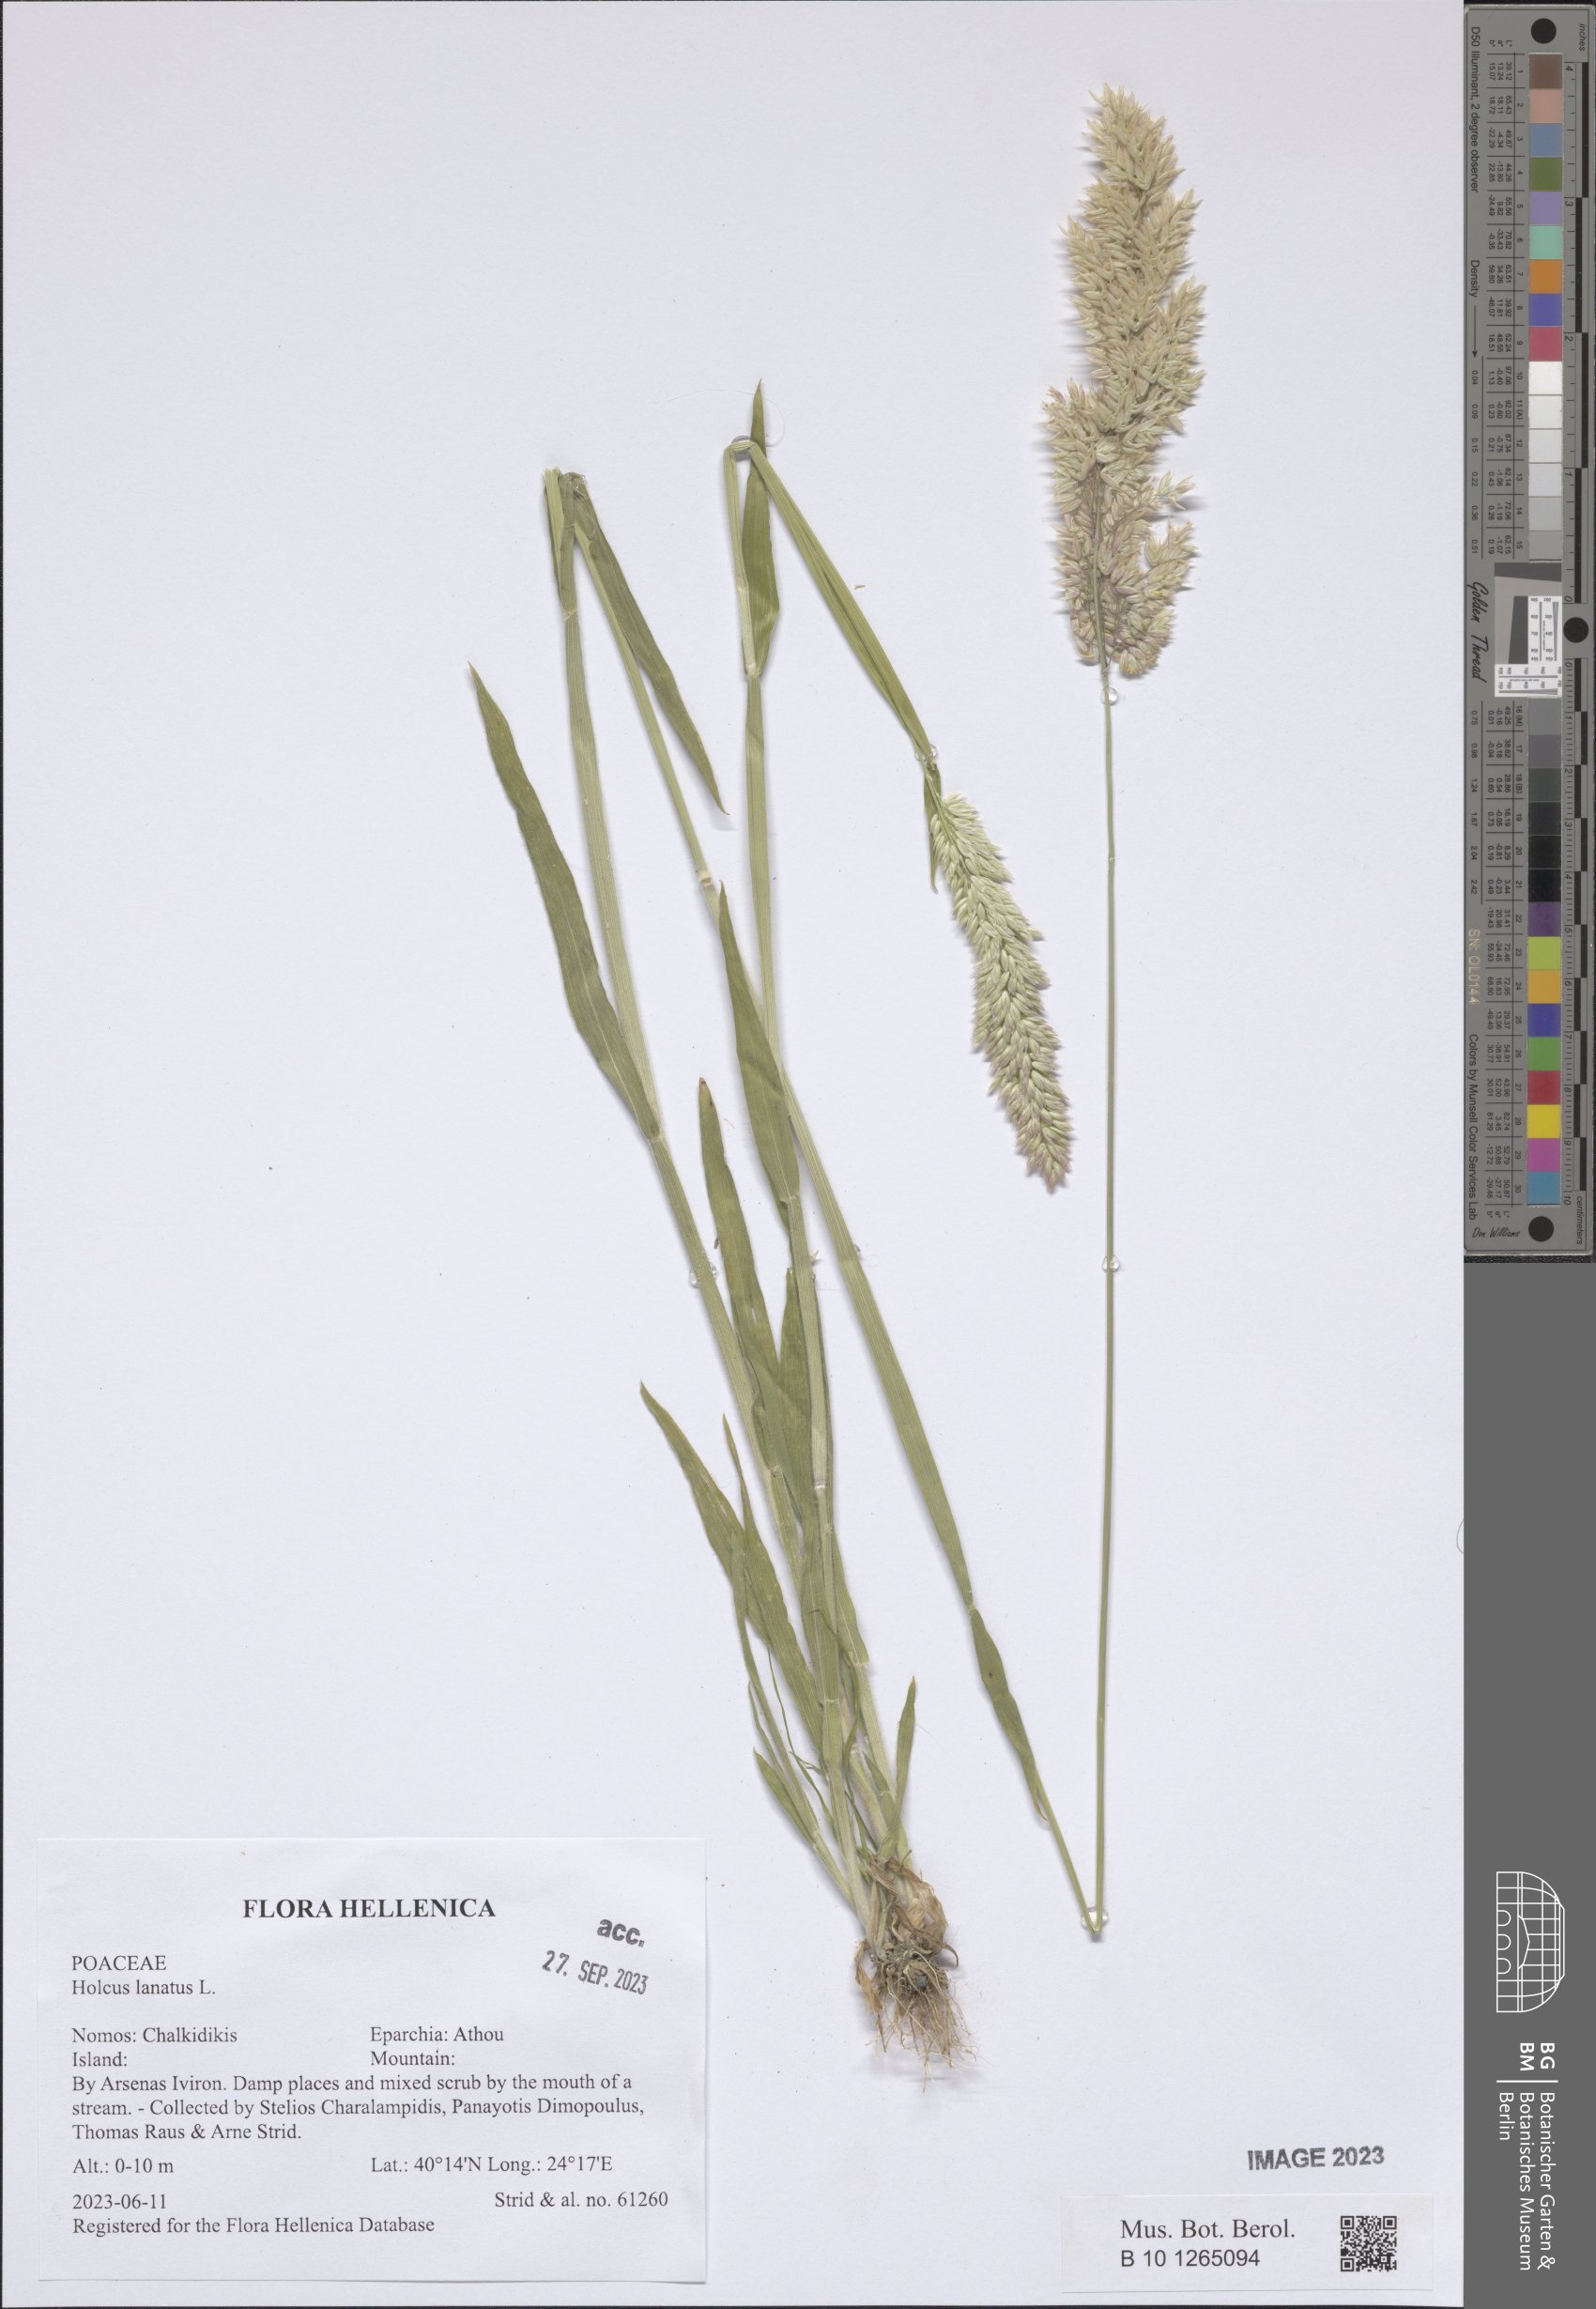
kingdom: Plantae
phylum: Tracheophyta
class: Liliopsida
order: Poales
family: Poaceae
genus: Holcus
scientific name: Holcus lanatus
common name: Yorkshire-fog
